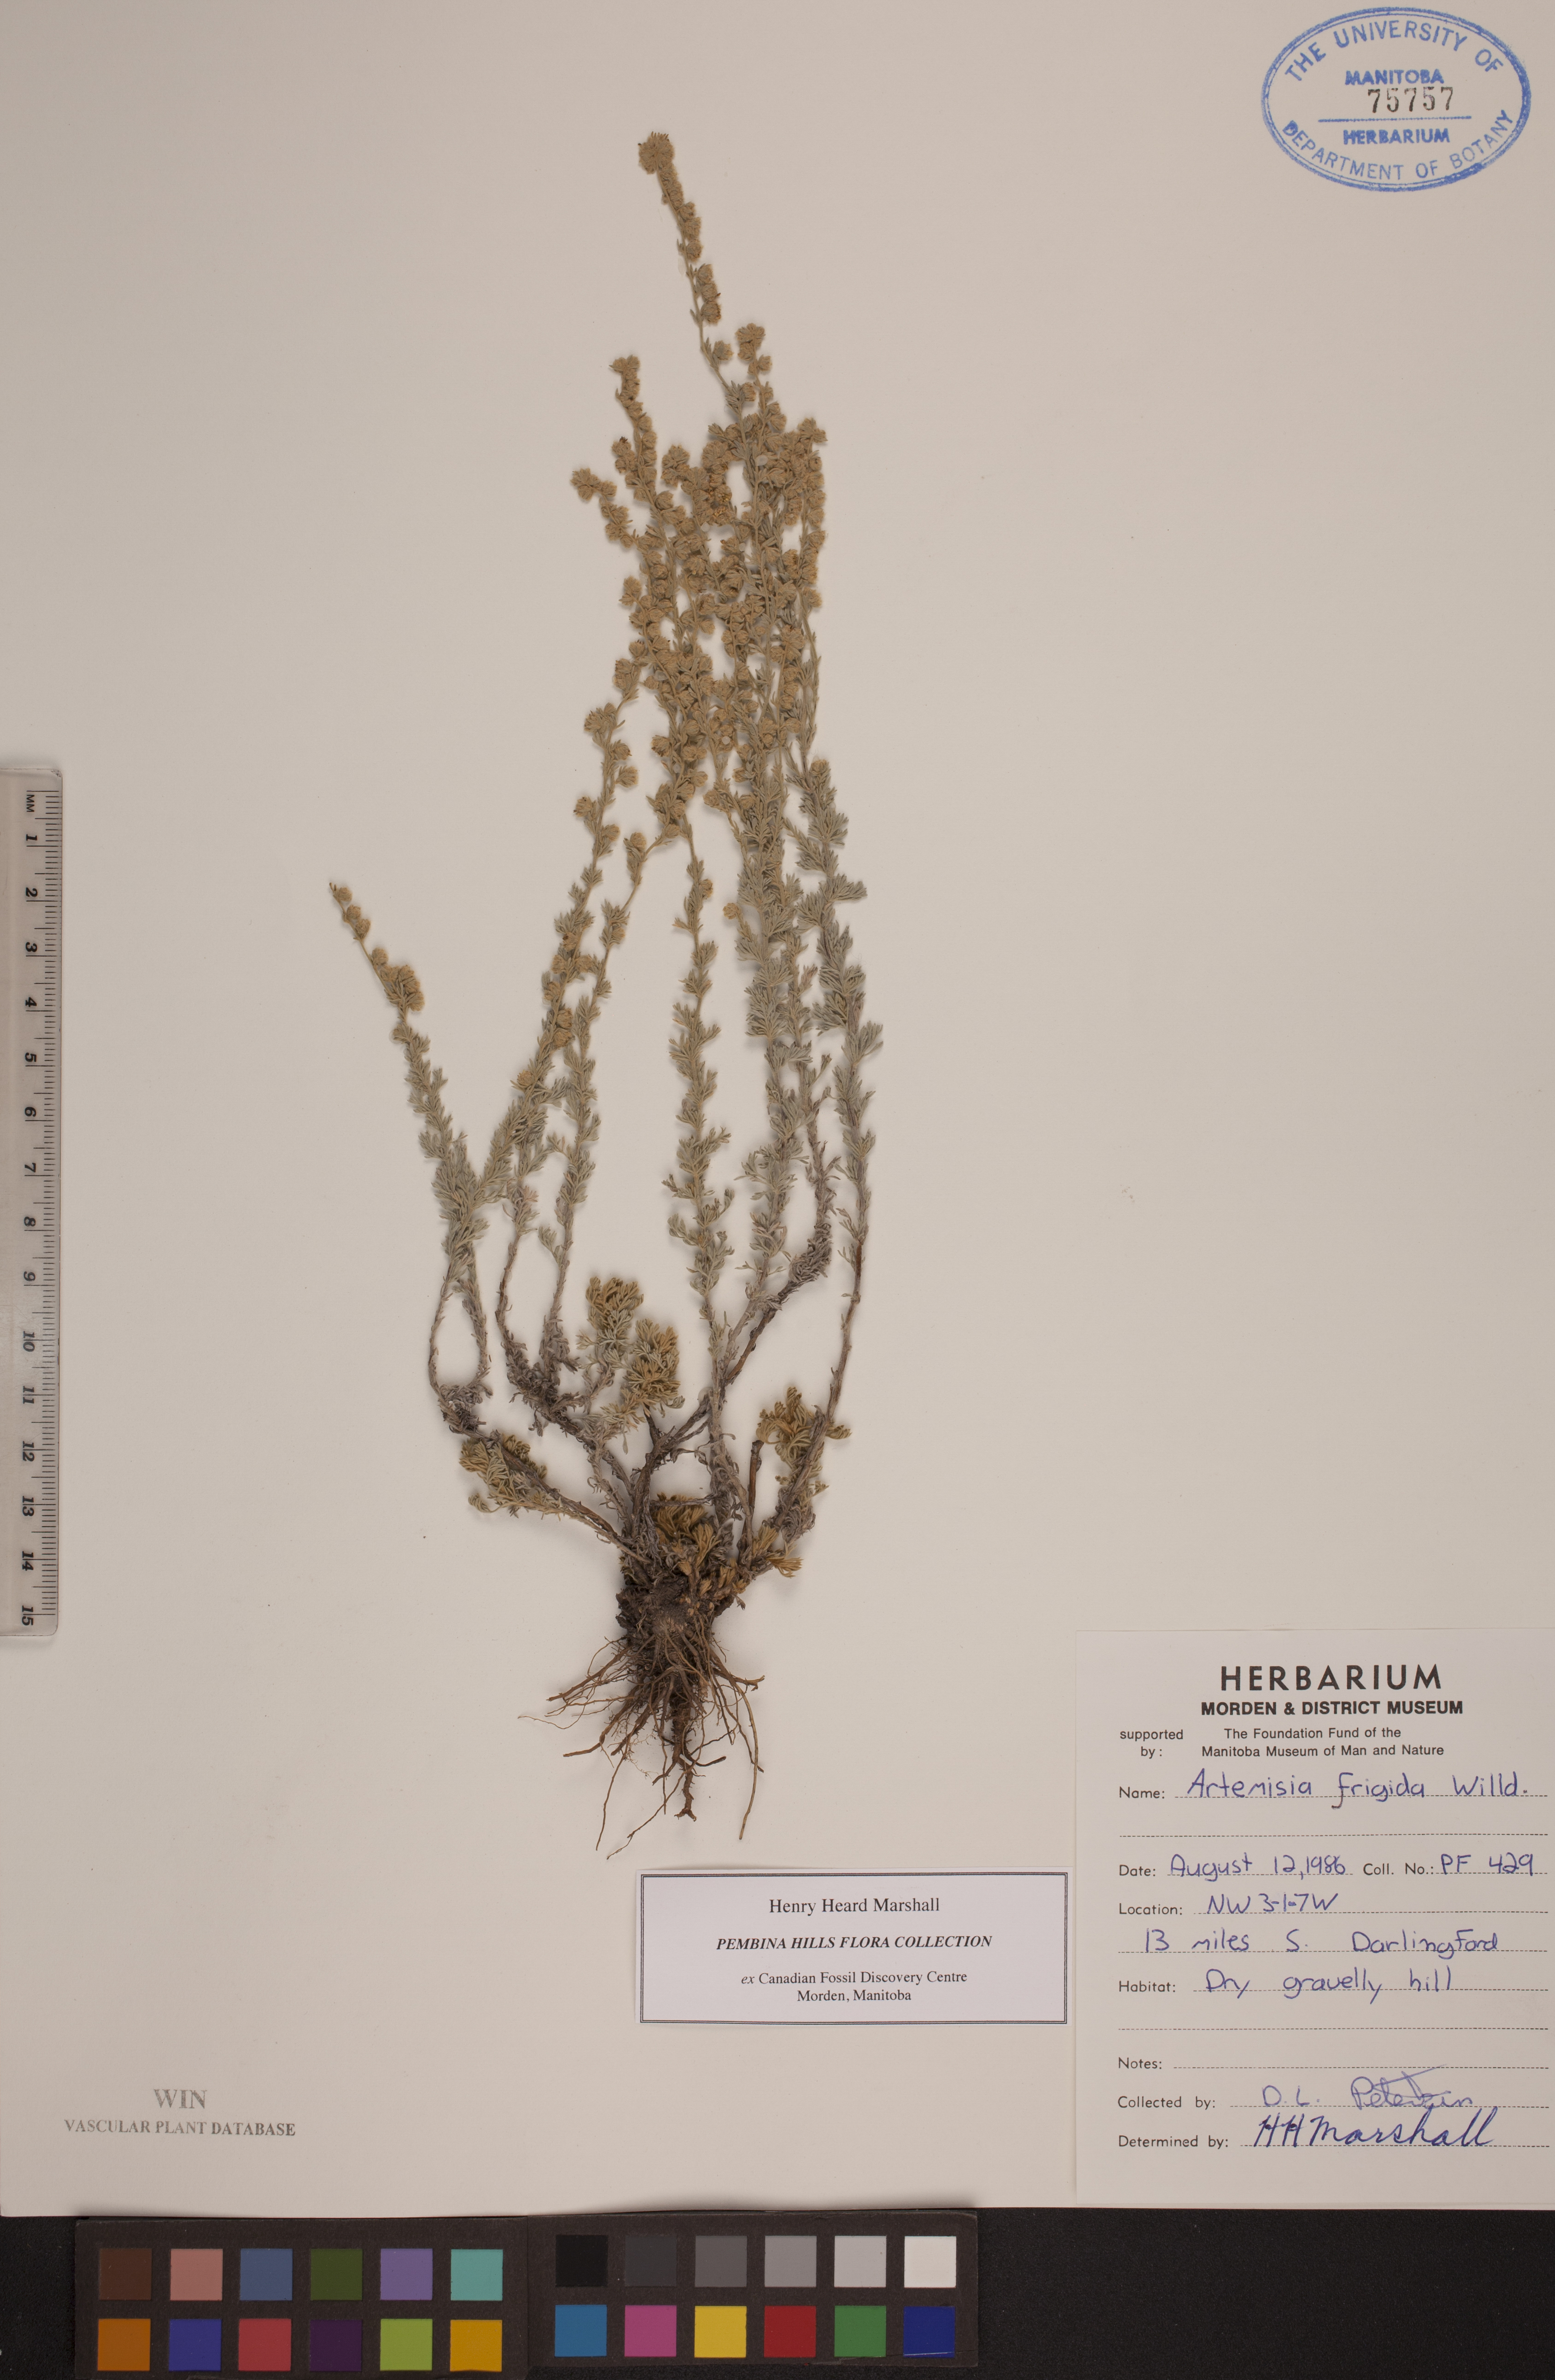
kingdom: Plantae
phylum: Tracheophyta
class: Magnoliopsida
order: Asterales
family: Asteraceae
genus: Artemisia
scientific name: Artemisia frigida
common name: Prairie sagewort
